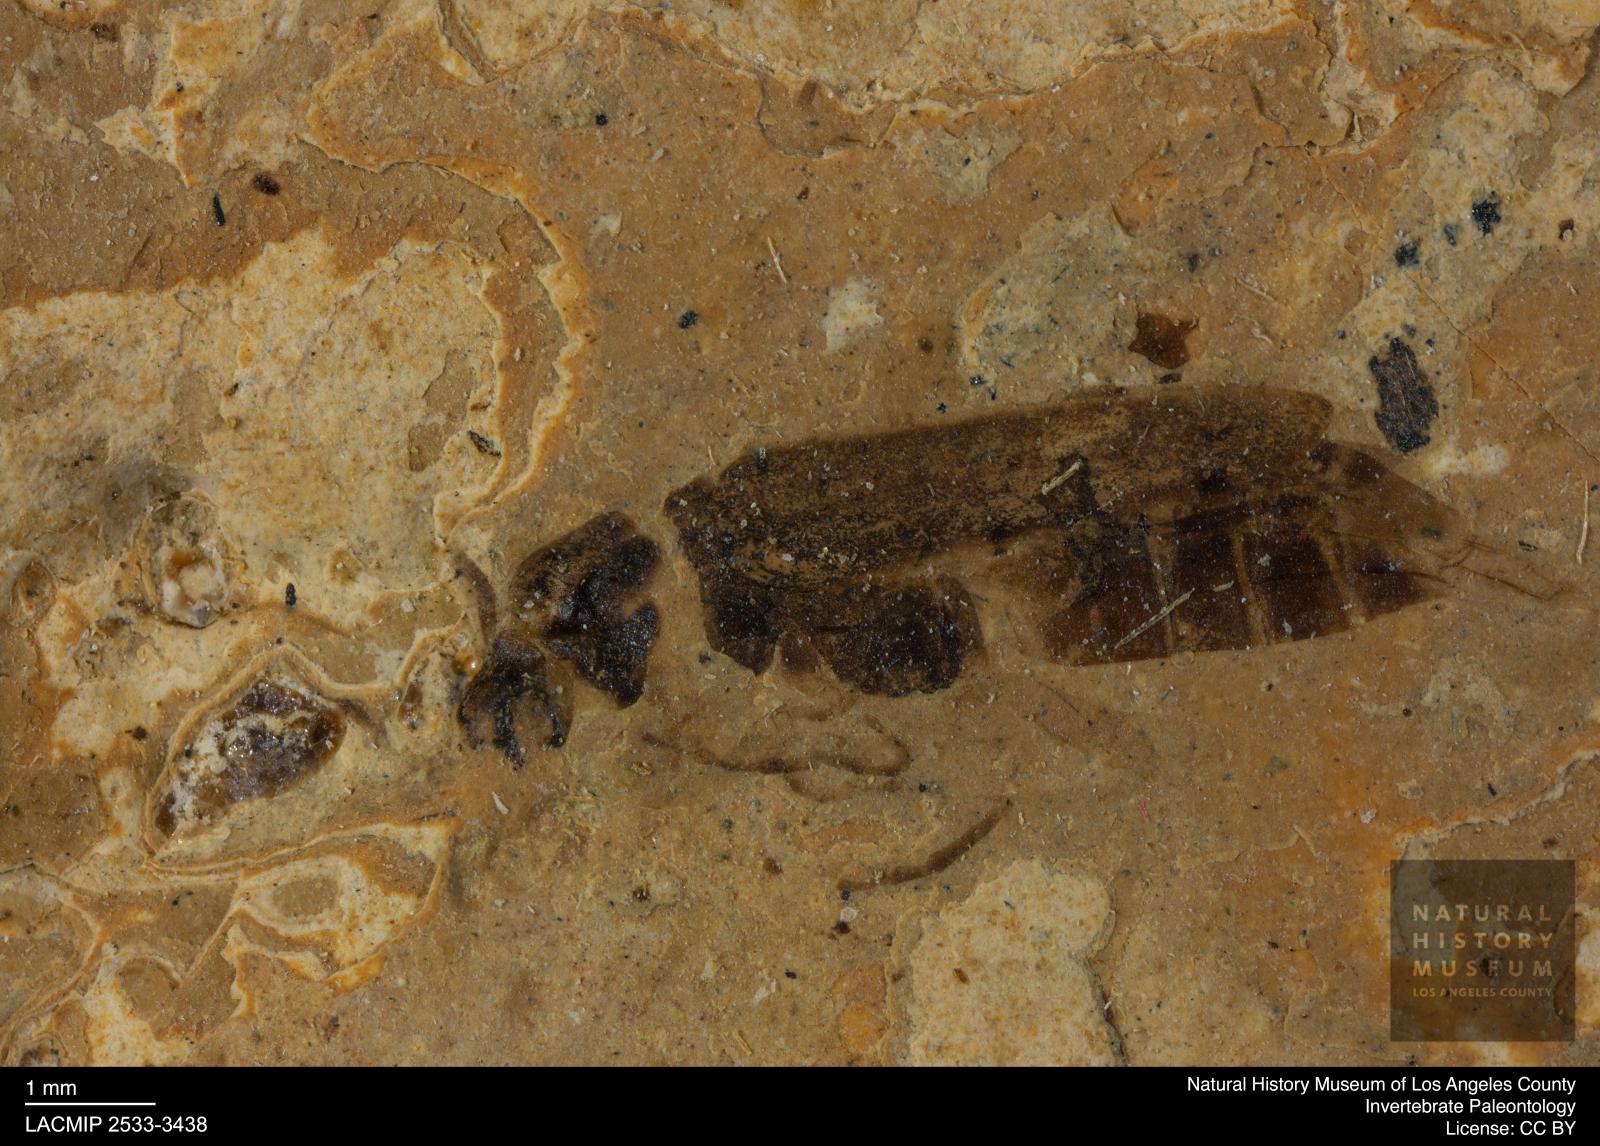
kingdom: Animalia
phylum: Arthropoda
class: Insecta
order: Coleoptera
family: Cantharidae
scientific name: Cantharidae
